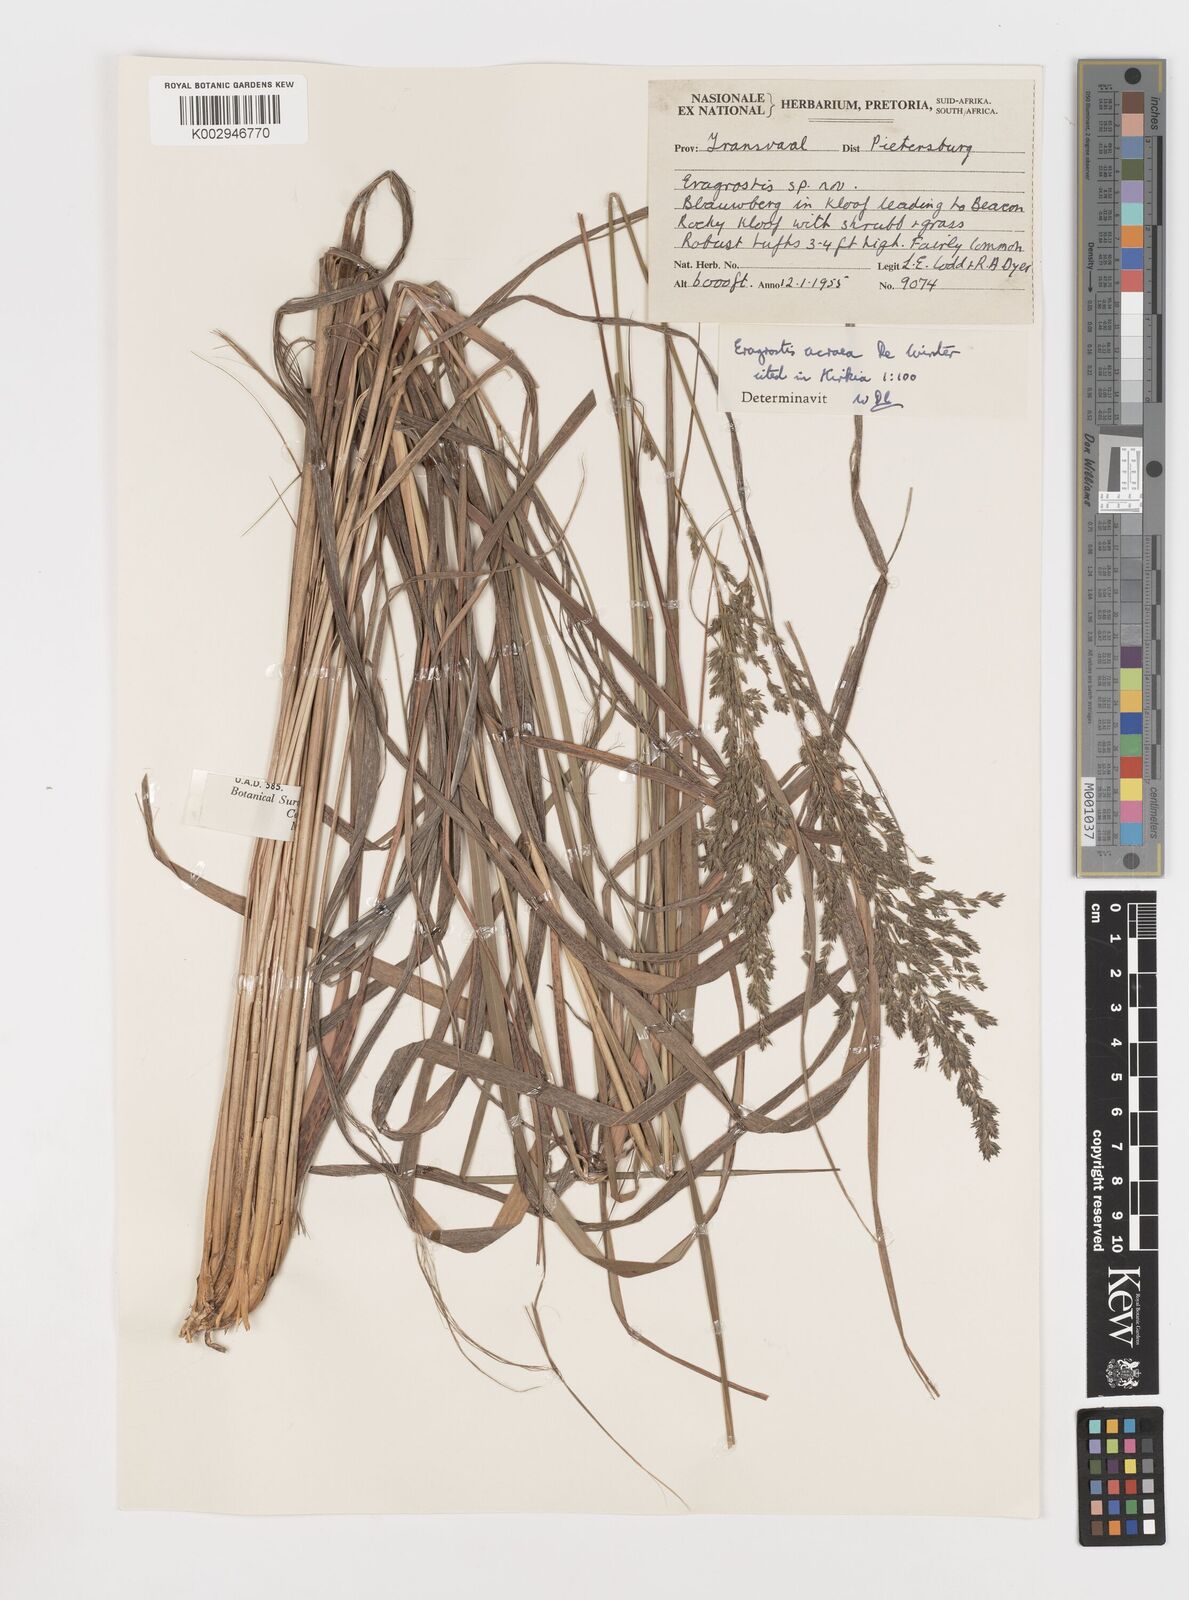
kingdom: Plantae
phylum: Tracheophyta
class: Liliopsida
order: Poales
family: Poaceae
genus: Eragrostis
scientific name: Eragrostis acraea
